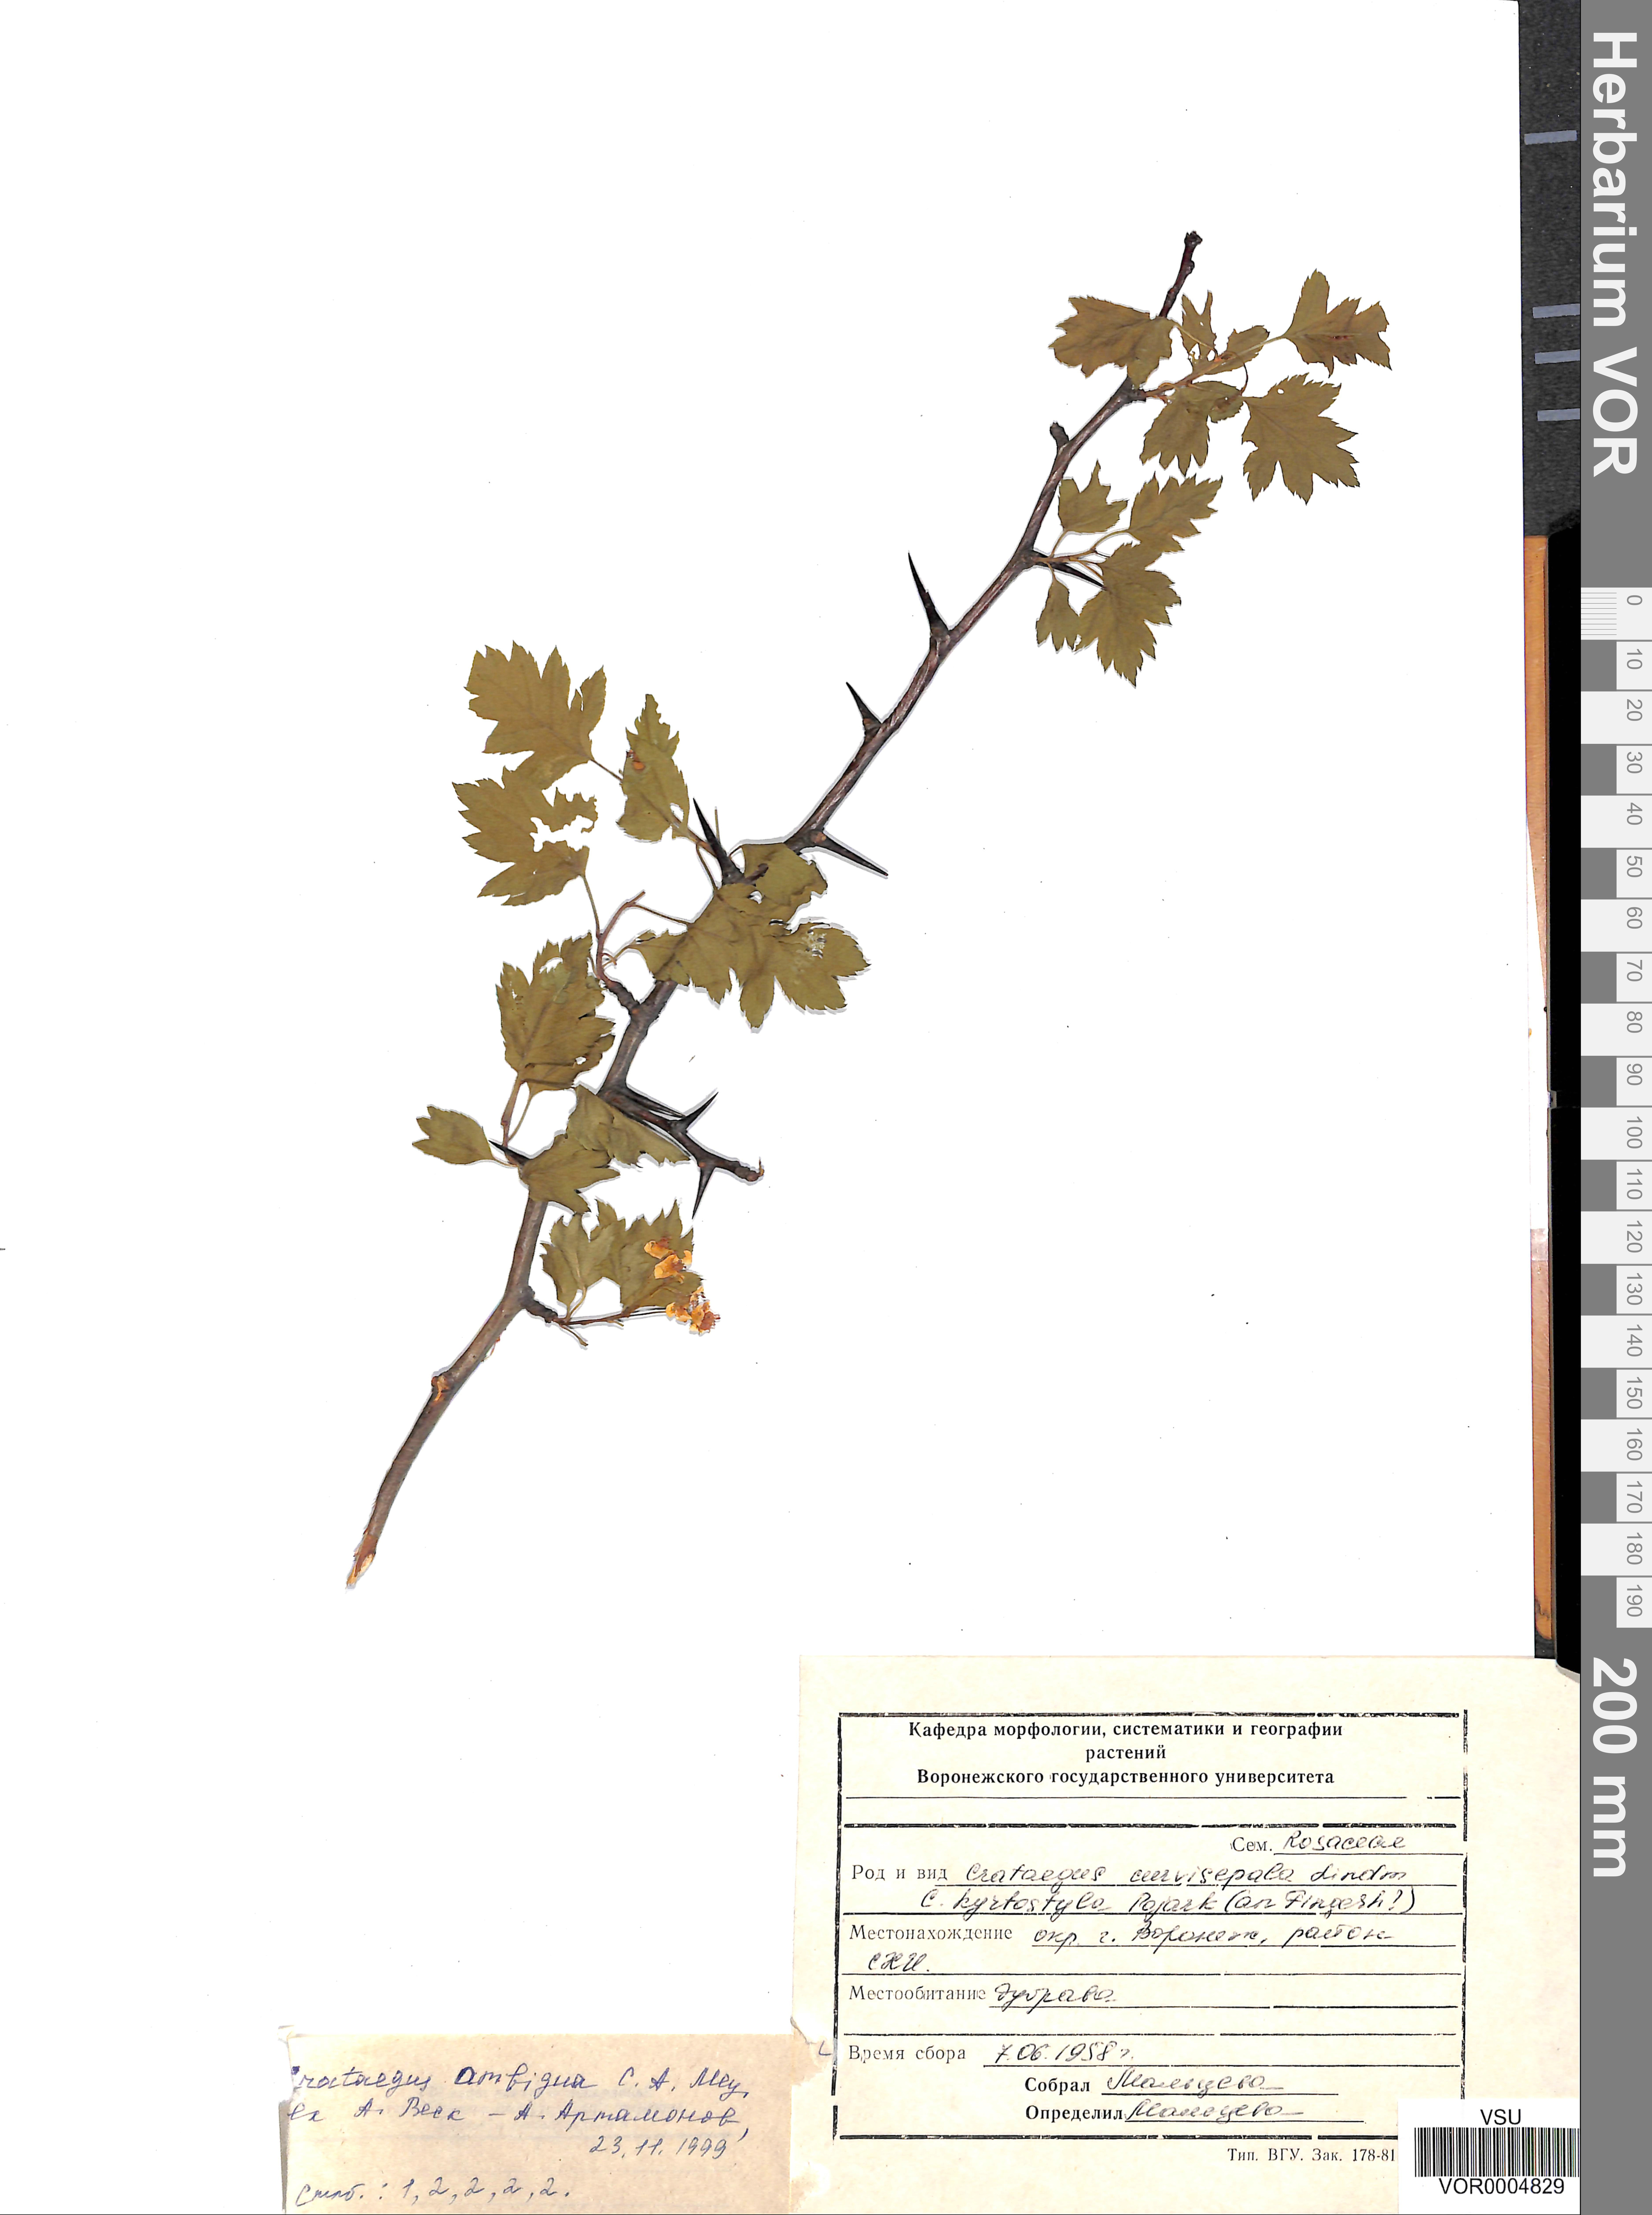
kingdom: Plantae
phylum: Tracheophyta
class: Magnoliopsida
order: Rosales
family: Rosaceae
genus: Crataegus
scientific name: Crataegus ambigua
